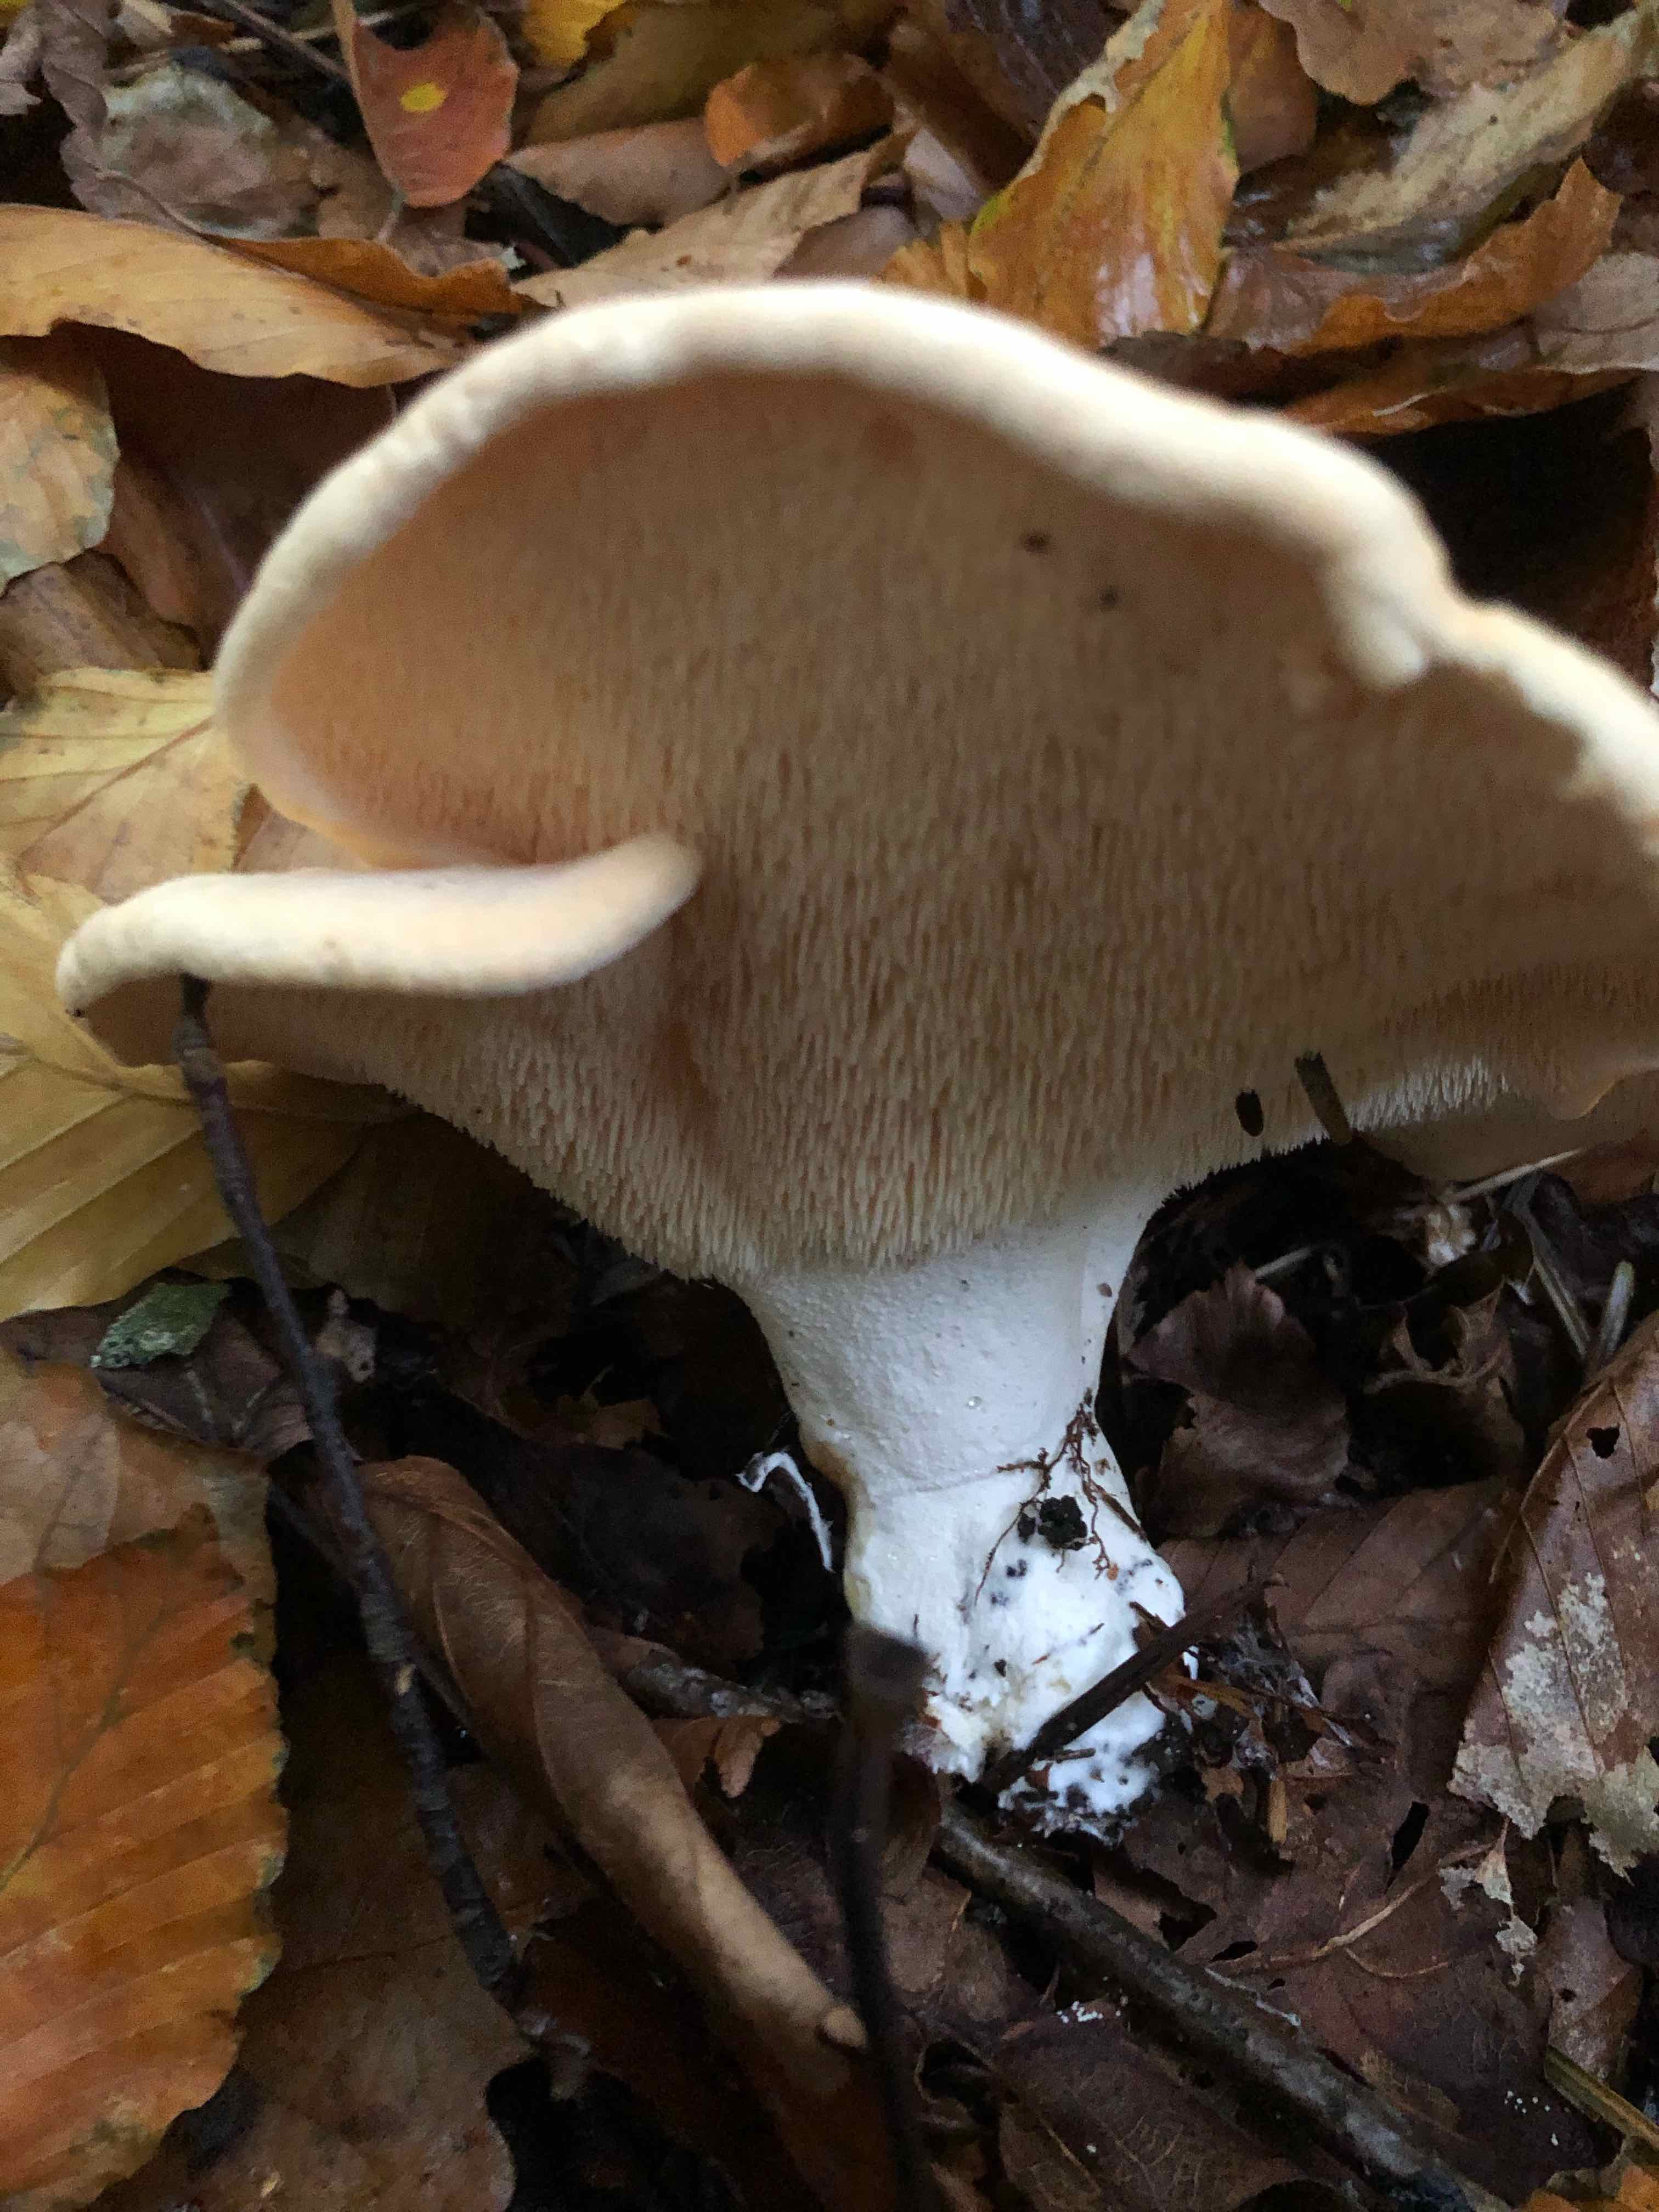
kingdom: Fungi
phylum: Basidiomycota
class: Agaricomycetes
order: Cantharellales
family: Hydnaceae
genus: Hydnum
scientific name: Hydnum repandum
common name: almindelig pigsvamp
